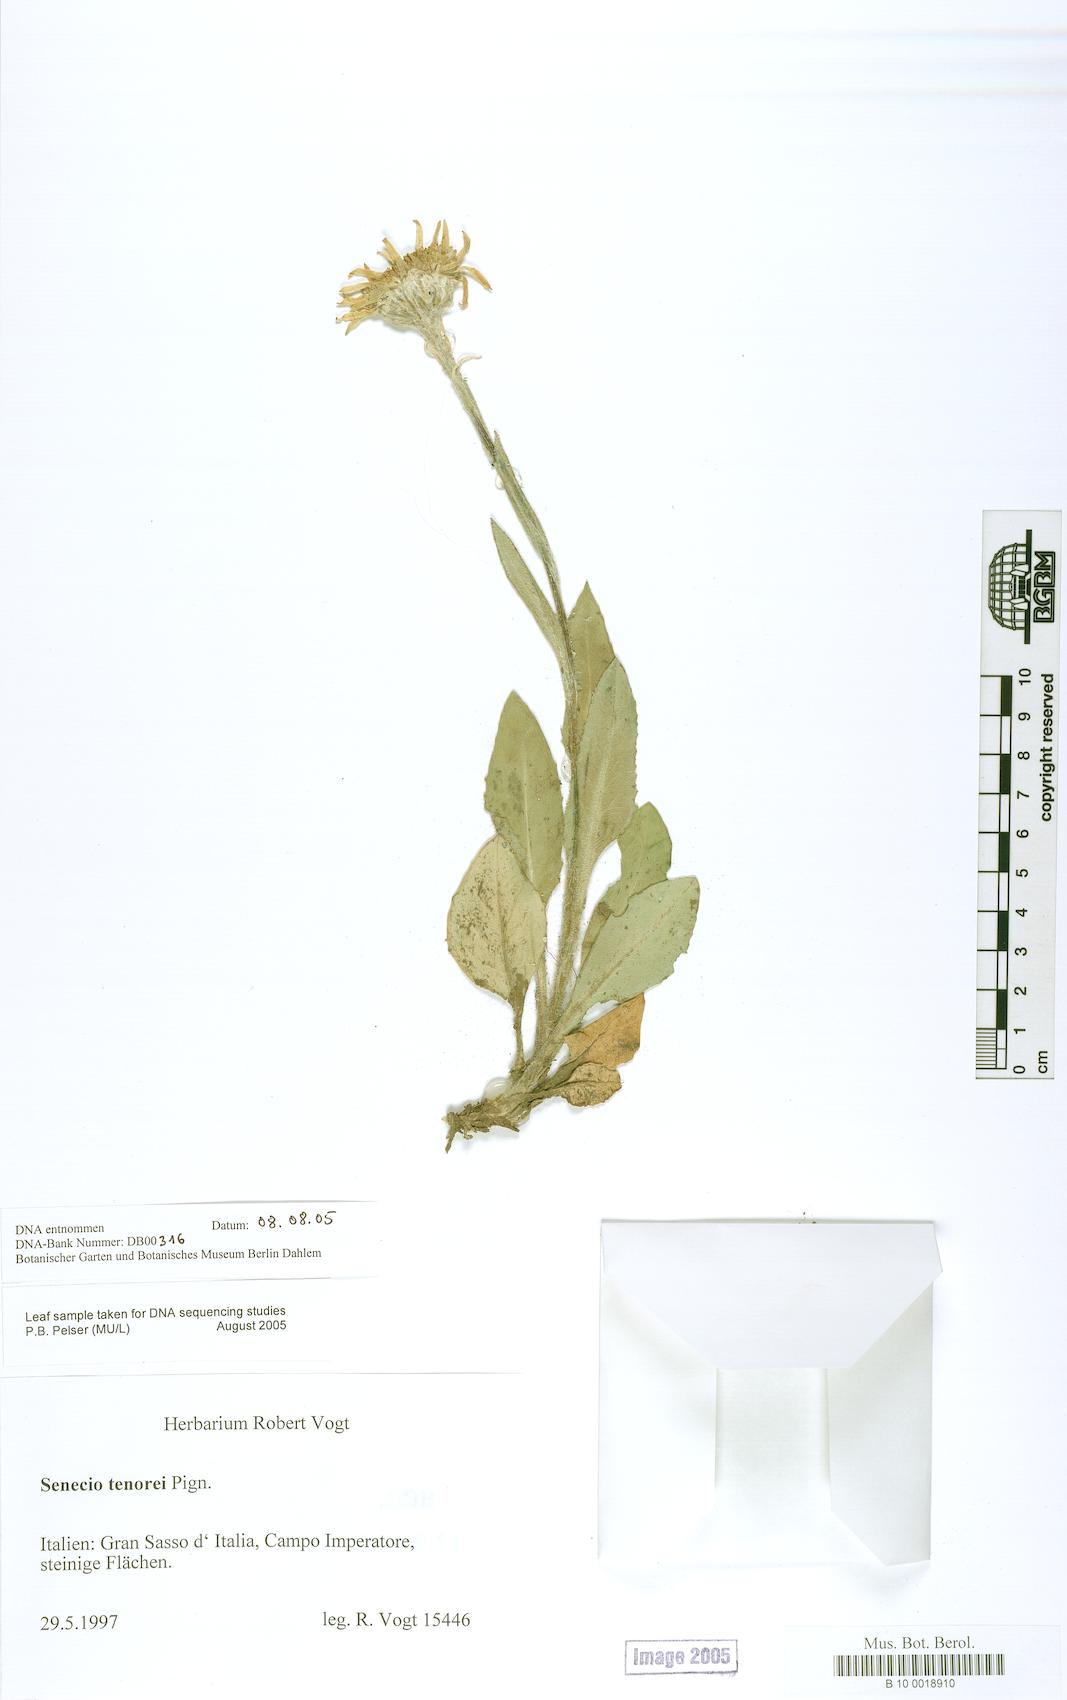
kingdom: Plantae
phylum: Tracheophyta
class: Magnoliopsida
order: Asterales
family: Asteraceae
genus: Senecio
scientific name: Senecio scopolii
